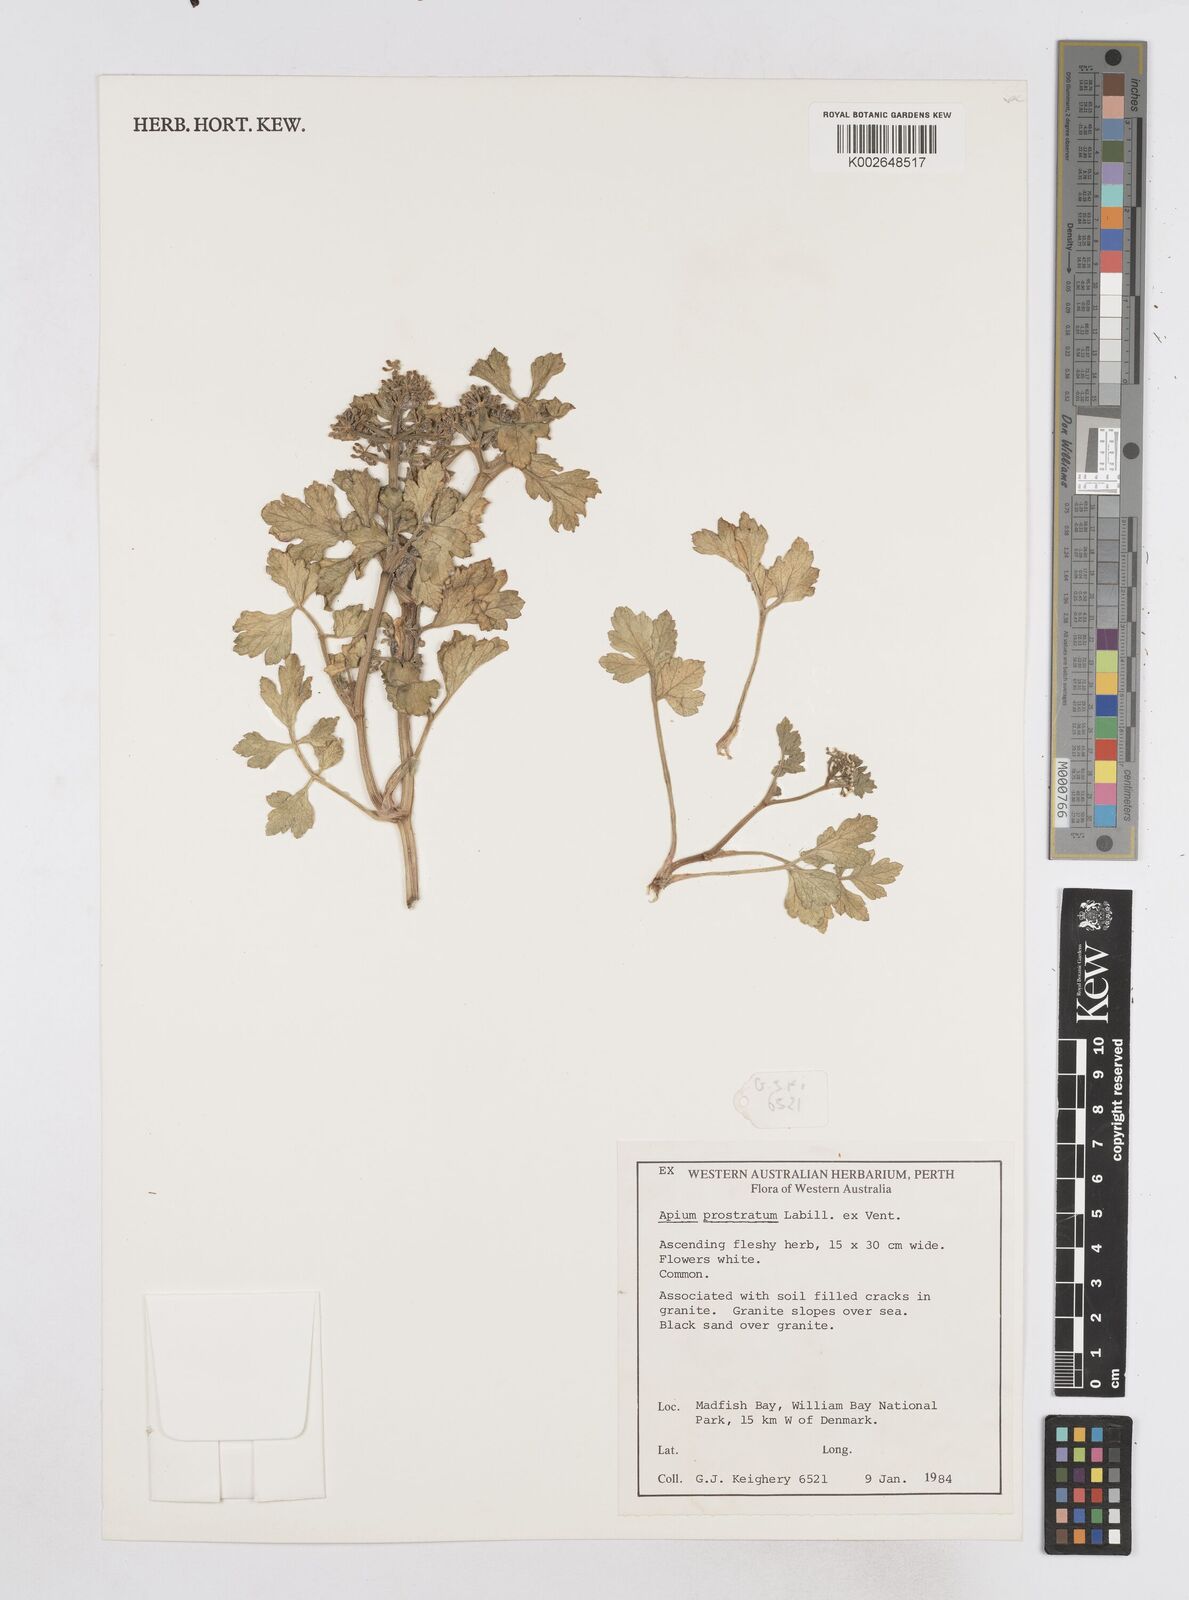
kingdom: Plantae
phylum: Tracheophyta
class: Magnoliopsida
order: Apiales
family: Apiaceae
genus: Apium
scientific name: Apium prostratum
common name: Prostrate marshwort
